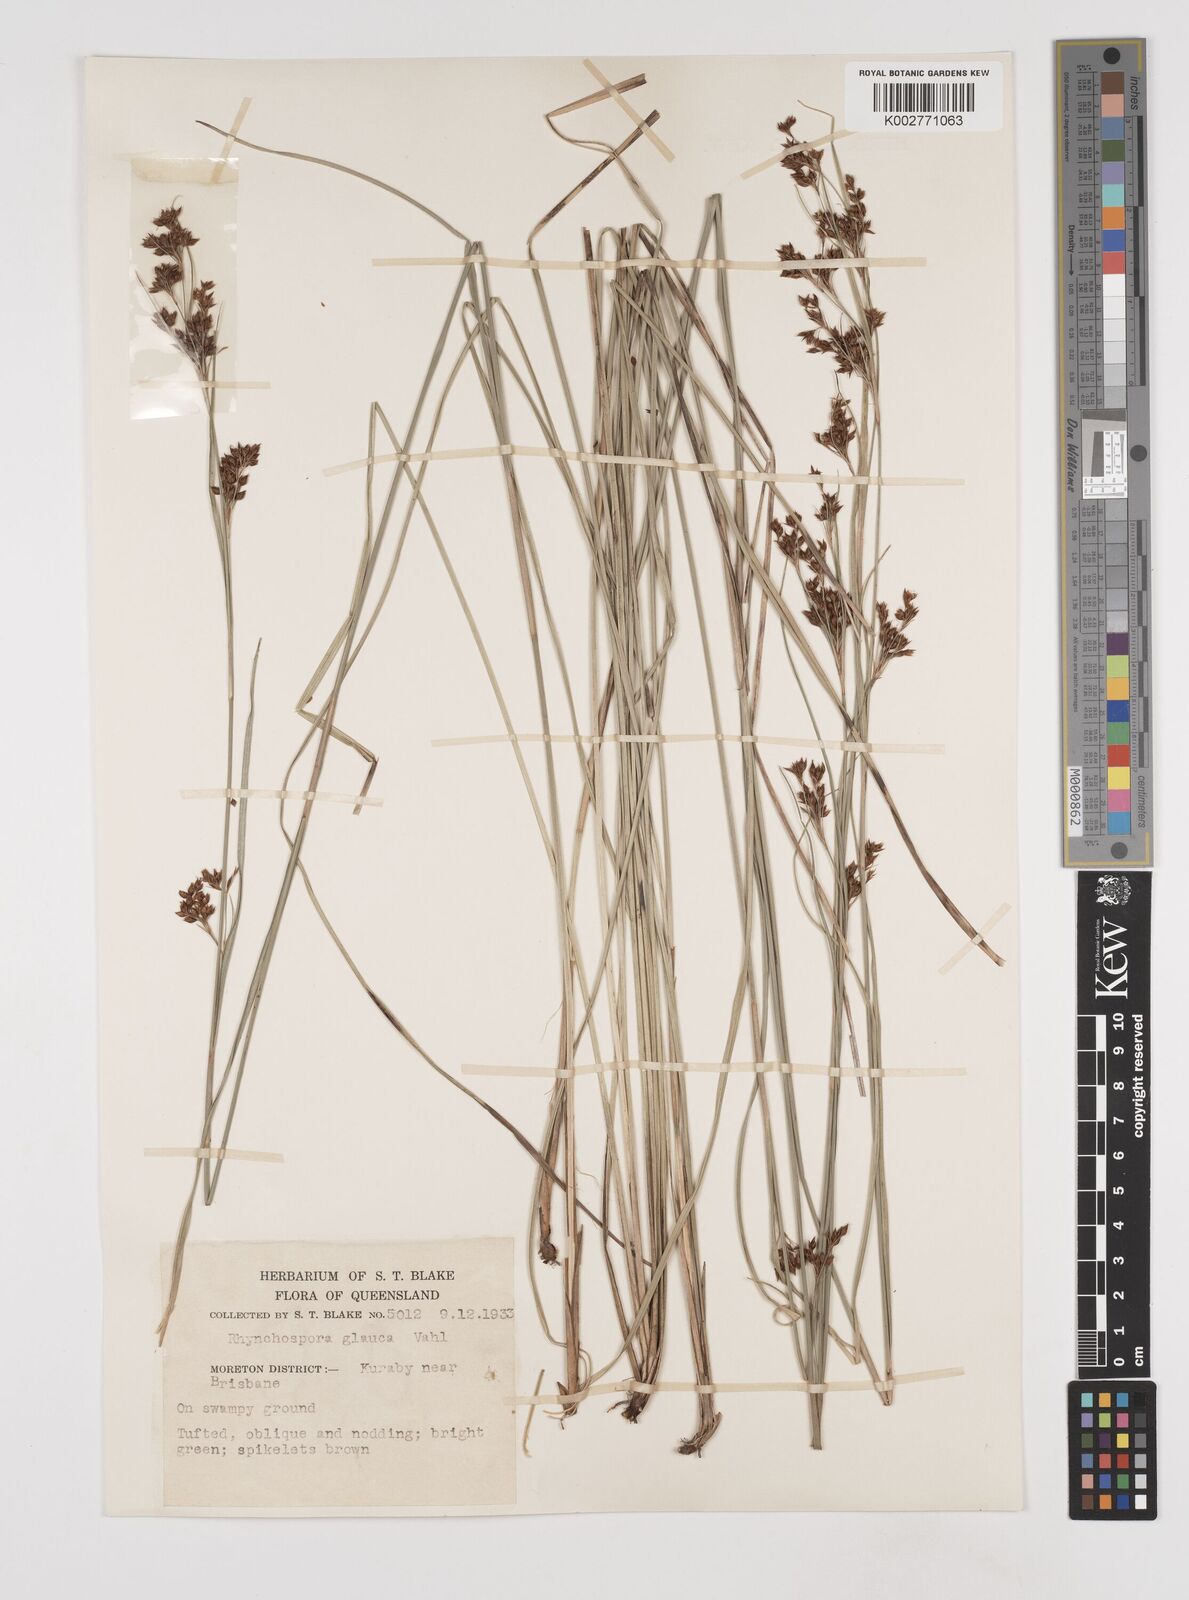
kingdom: Plantae
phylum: Tracheophyta
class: Liliopsida
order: Poales
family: Cyperaceae
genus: Rhynchospora
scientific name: Rhynchospora rugosa
